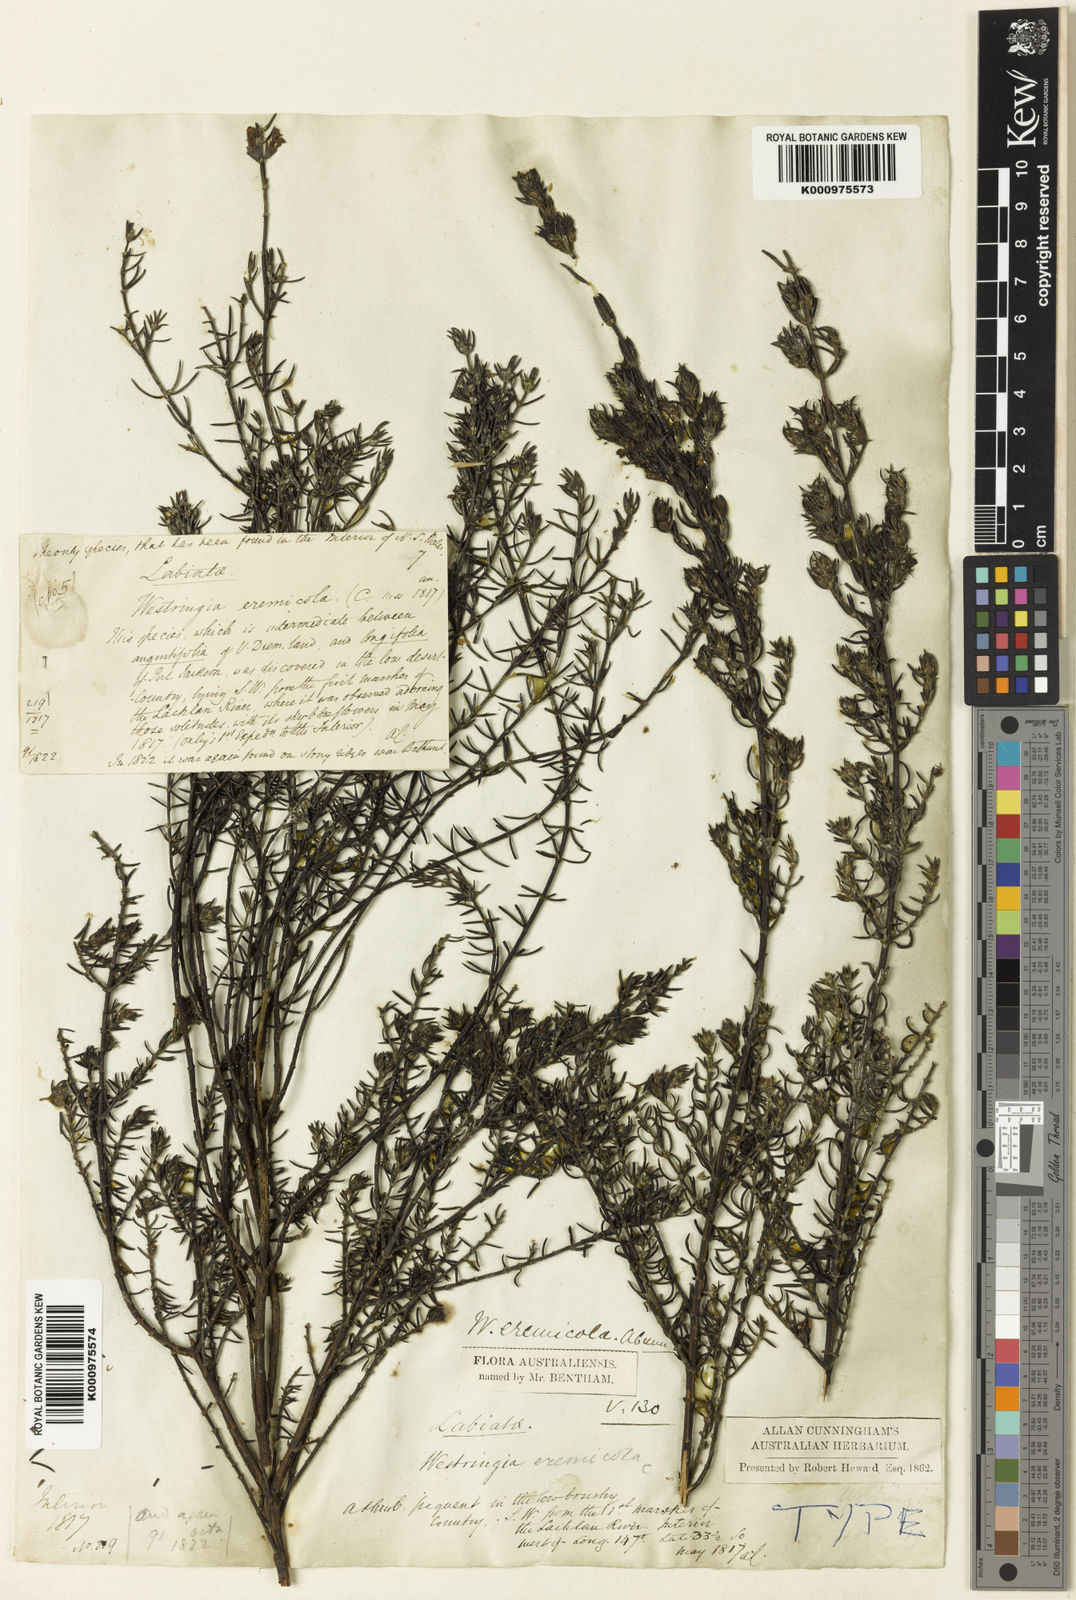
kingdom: Plantae
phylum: Tracheophyta
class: Magnoliopsida
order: Lamiales
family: Lamiaceae
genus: Westringia
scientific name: Westringia eremicola
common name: Slender western-rosemary
